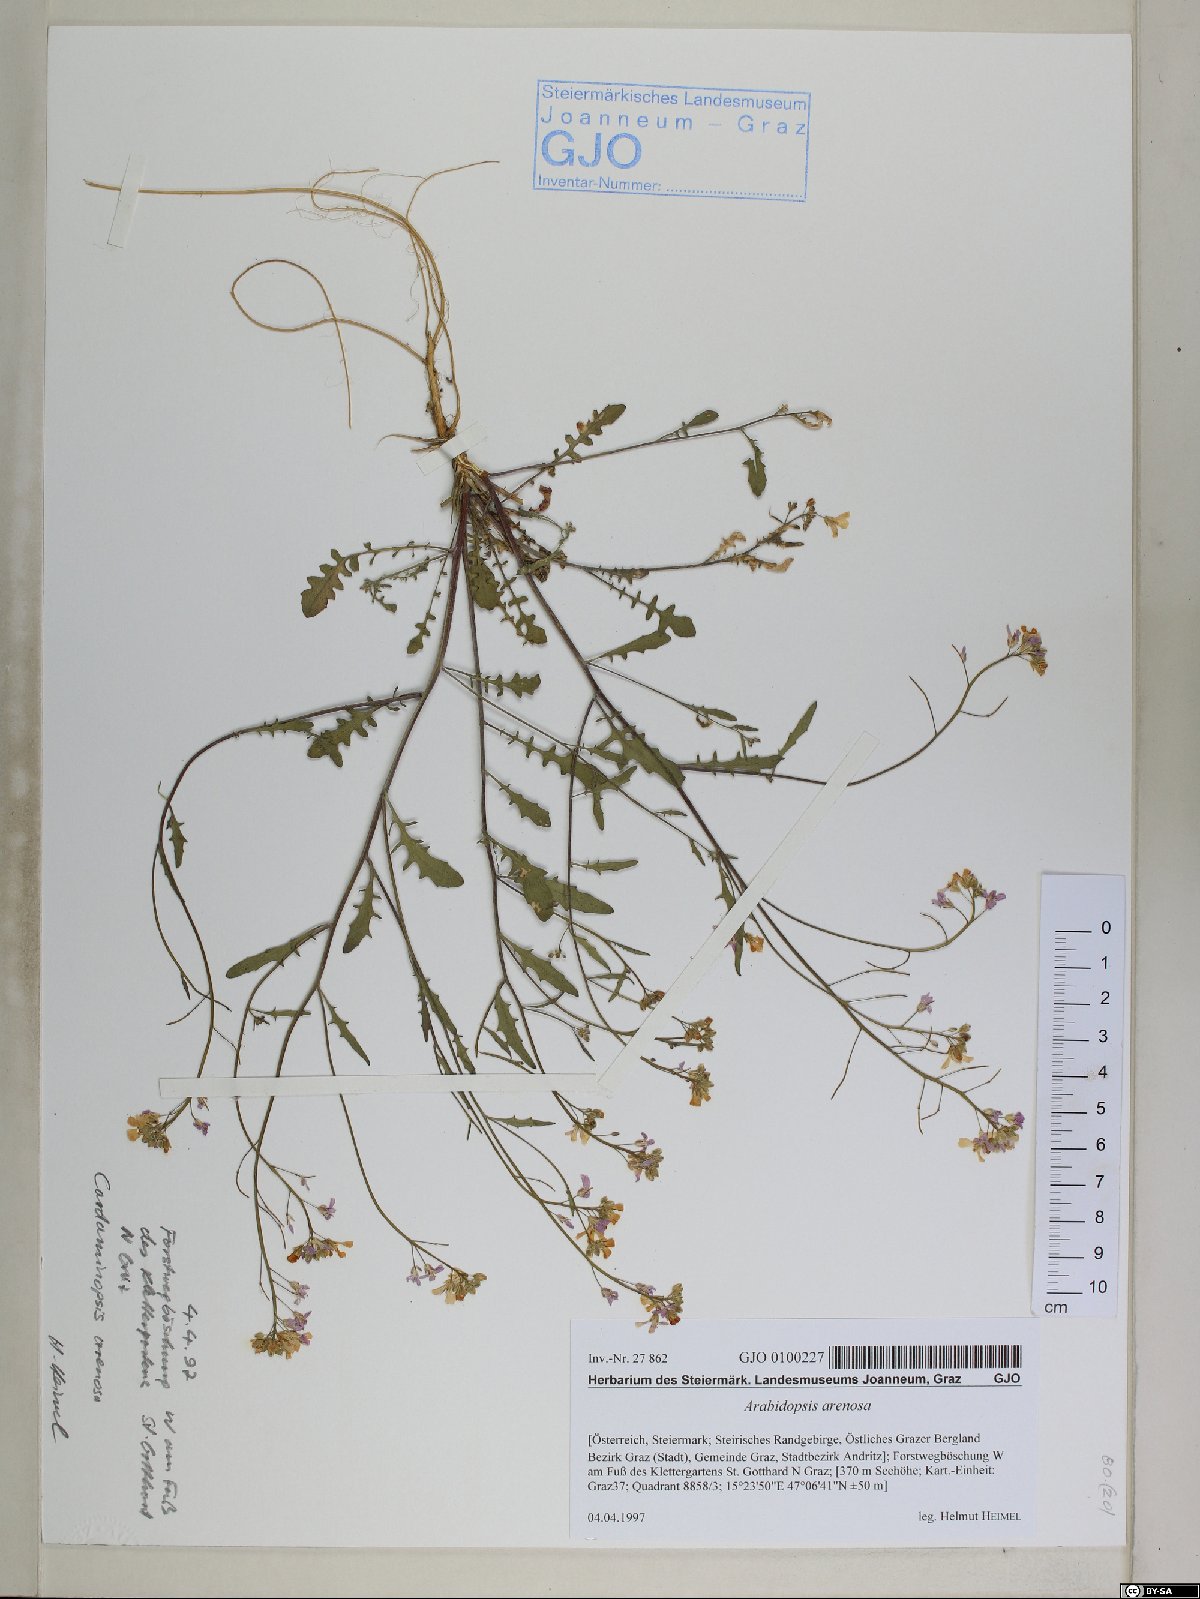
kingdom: Plantae
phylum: Tracheophyta
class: Magnoliopsida
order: Brassicales
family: Brassicaceae
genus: Arabidopsis
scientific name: Arabidopsis arenosa
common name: Sand rock-cress
